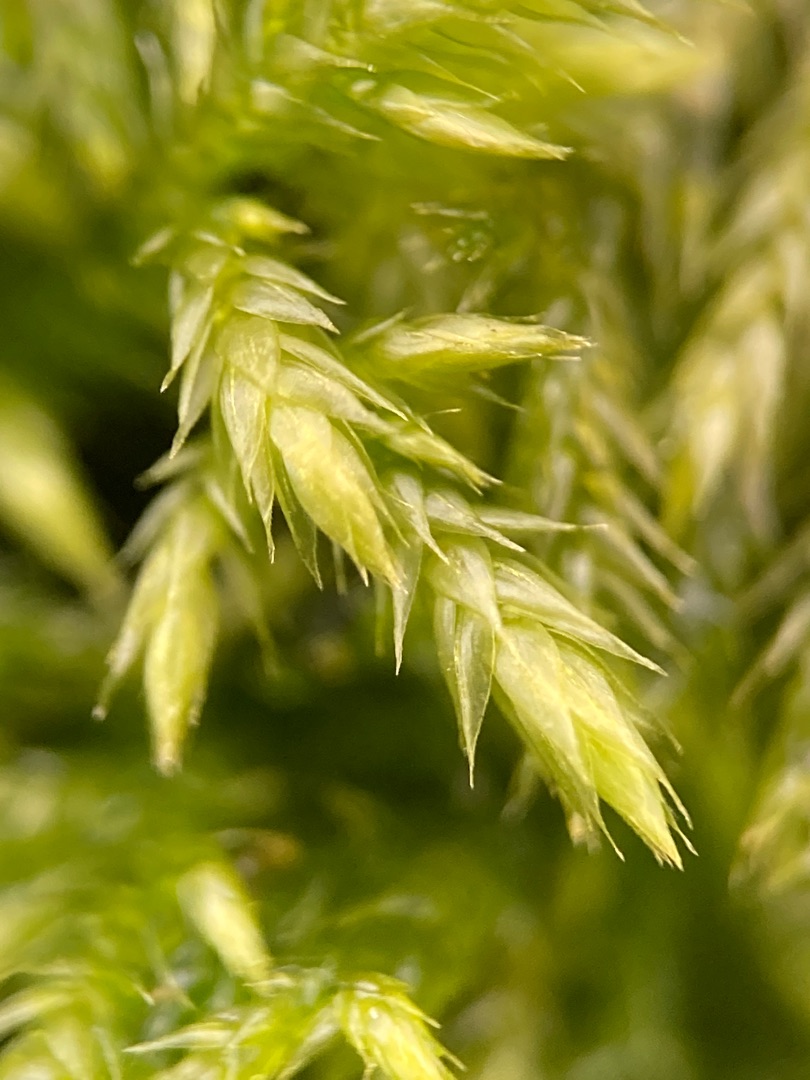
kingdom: Plantae
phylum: Bryophyta
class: Bryopsida
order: Hypnales
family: Lembophyllaceae
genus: Pseudisothecium
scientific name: Pseudisothecium myosuroides
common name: Slank stammemos
